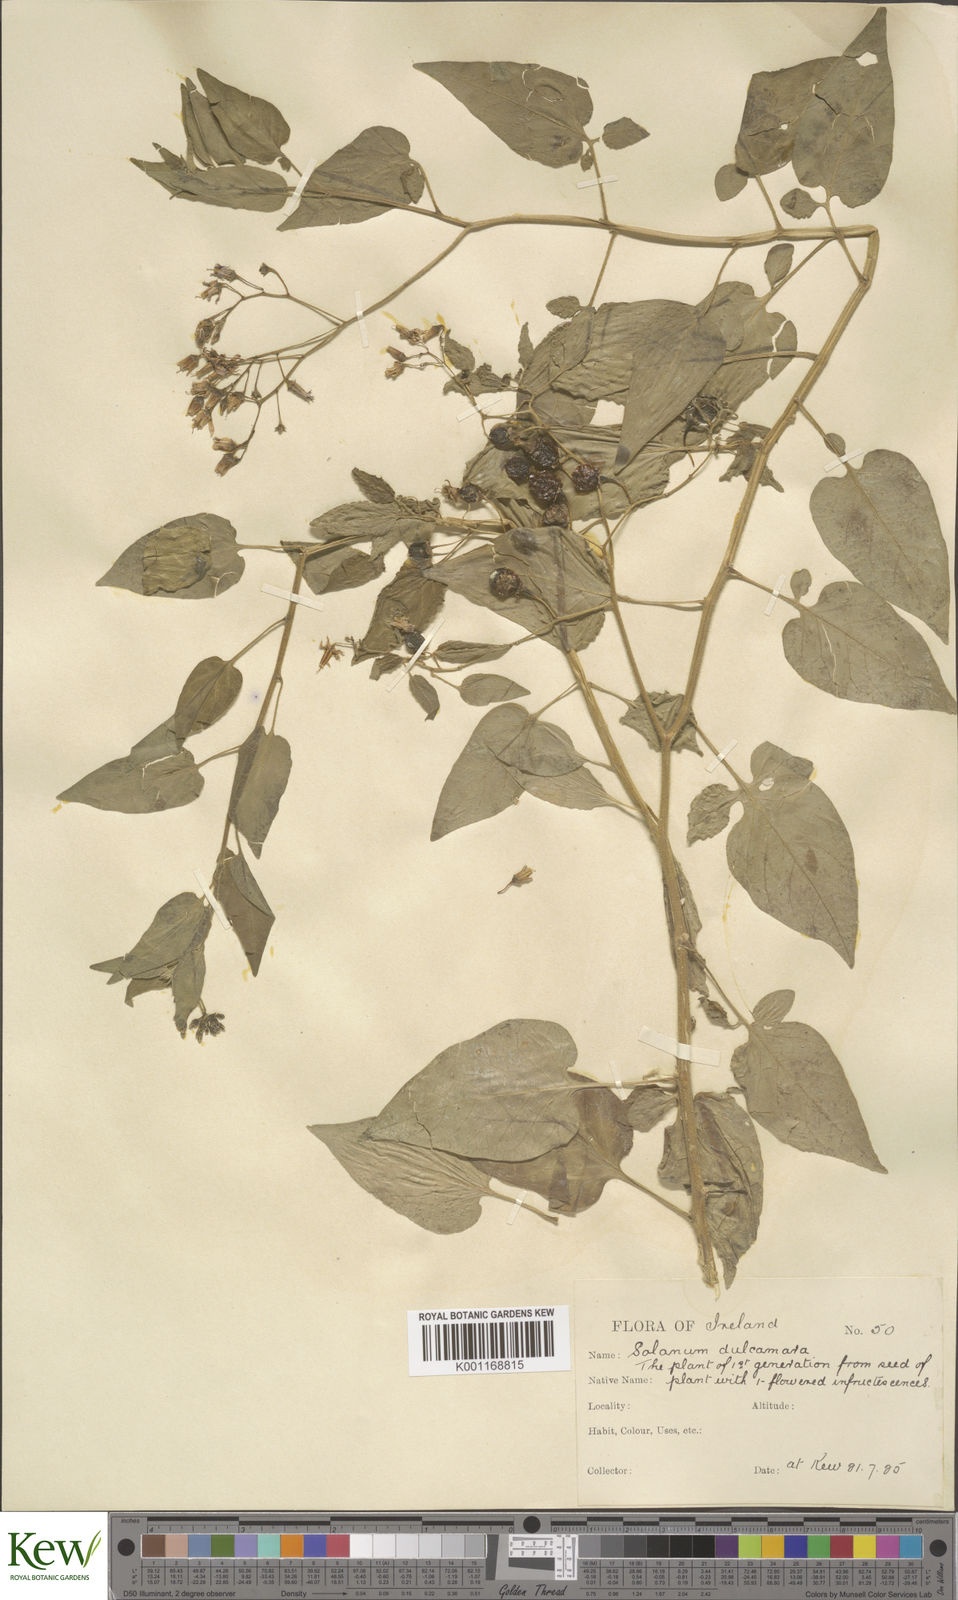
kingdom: Plantae
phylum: Tracheophyta
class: Magnoliopsida
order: Solanales
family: Solanaceae
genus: Solanum
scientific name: Solanum dulcamara
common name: Climbing nightshade
